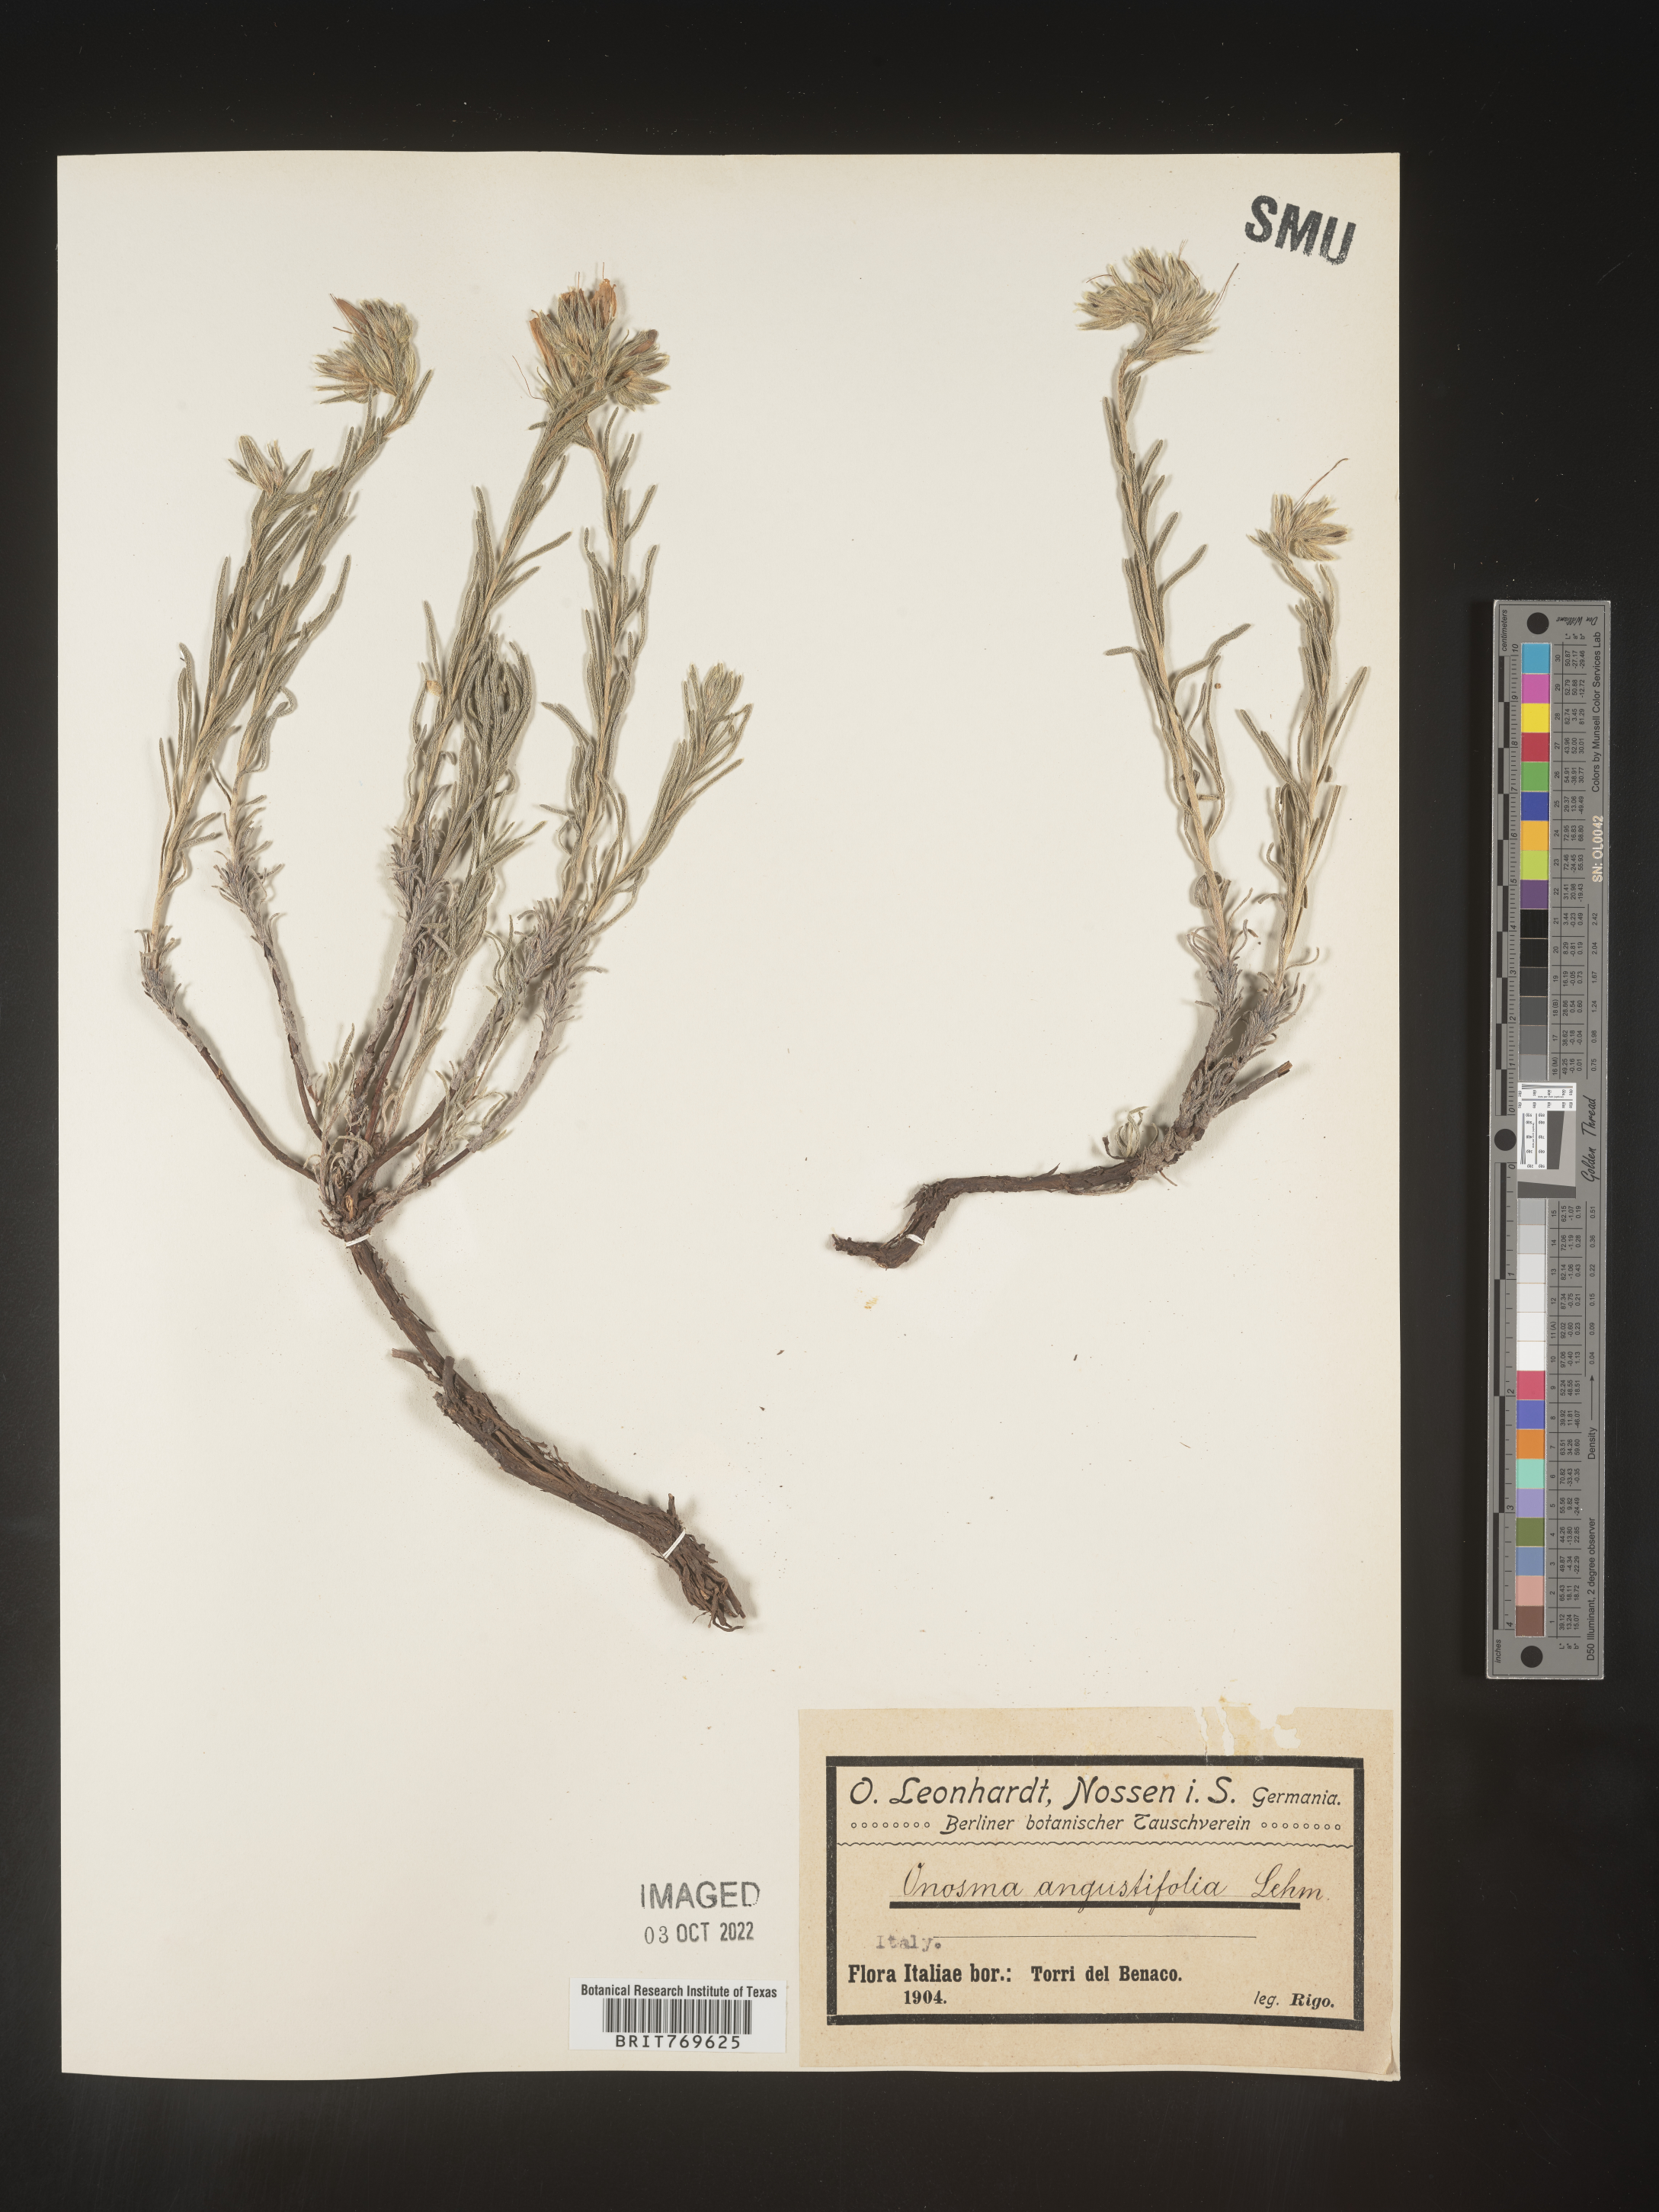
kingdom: Plantae
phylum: Tracheophyta
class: Magnoliopsida
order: Boraginales
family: Boraginaceae
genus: Onosma
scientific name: Onosma
